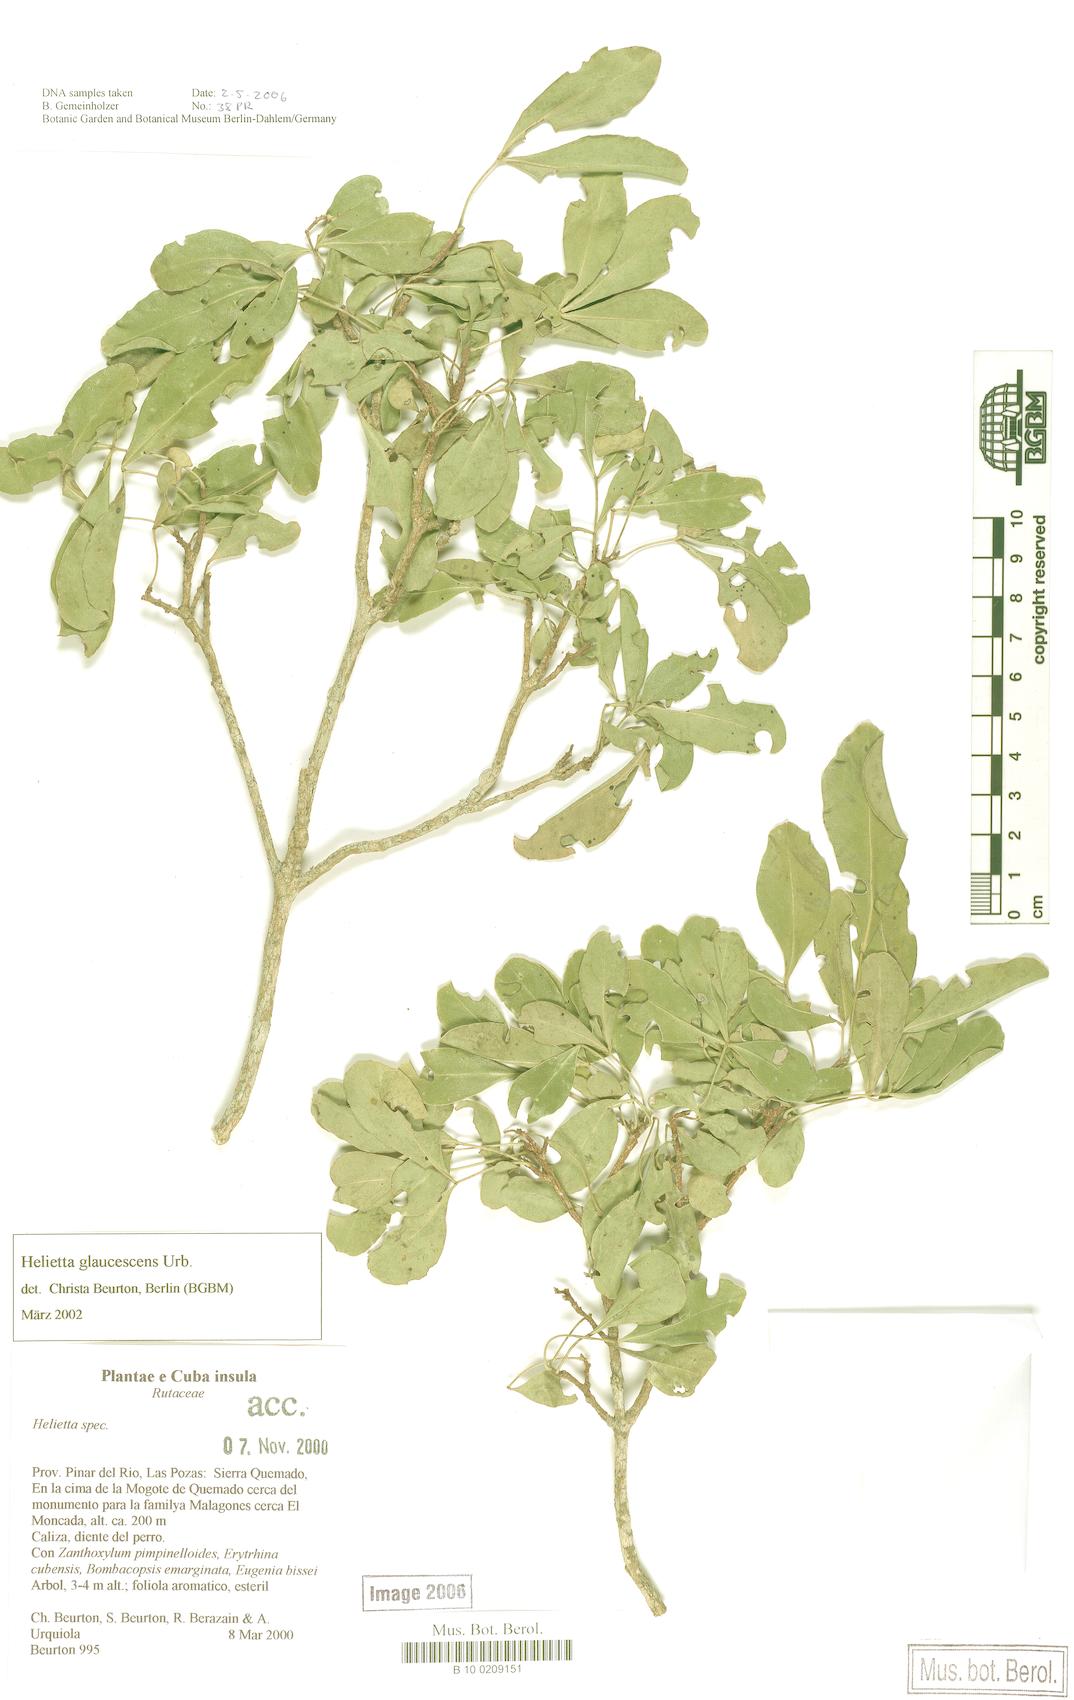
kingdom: Plantae
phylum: Tracheophyta
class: Magnoliopsida
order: Sapindales
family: Rutaceae
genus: Helietta
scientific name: Helietta glaucescens
